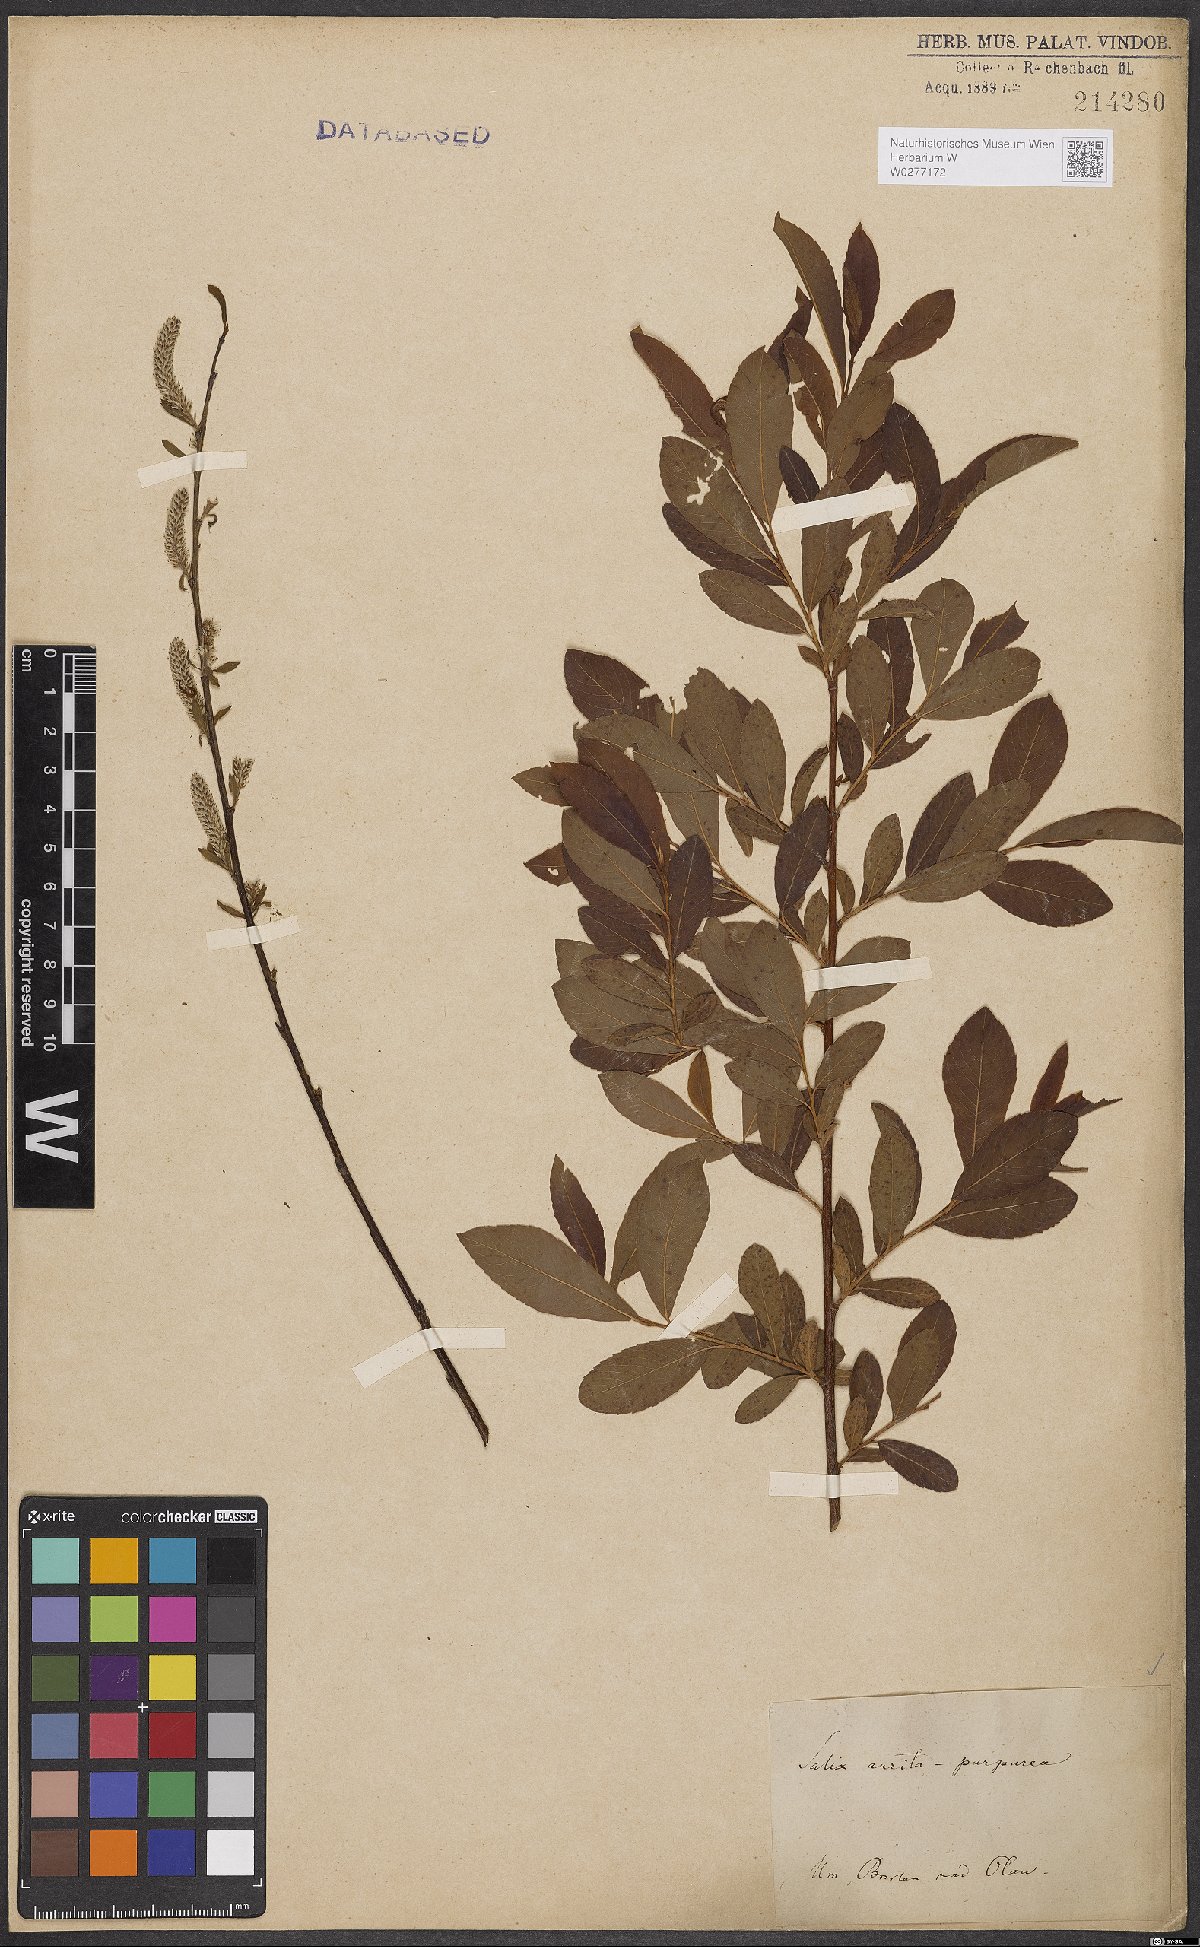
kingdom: Plantae
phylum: Tracheophyta
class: Magnoliopsida
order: Malpighiales
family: Salicaceae
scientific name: Salicaceae
